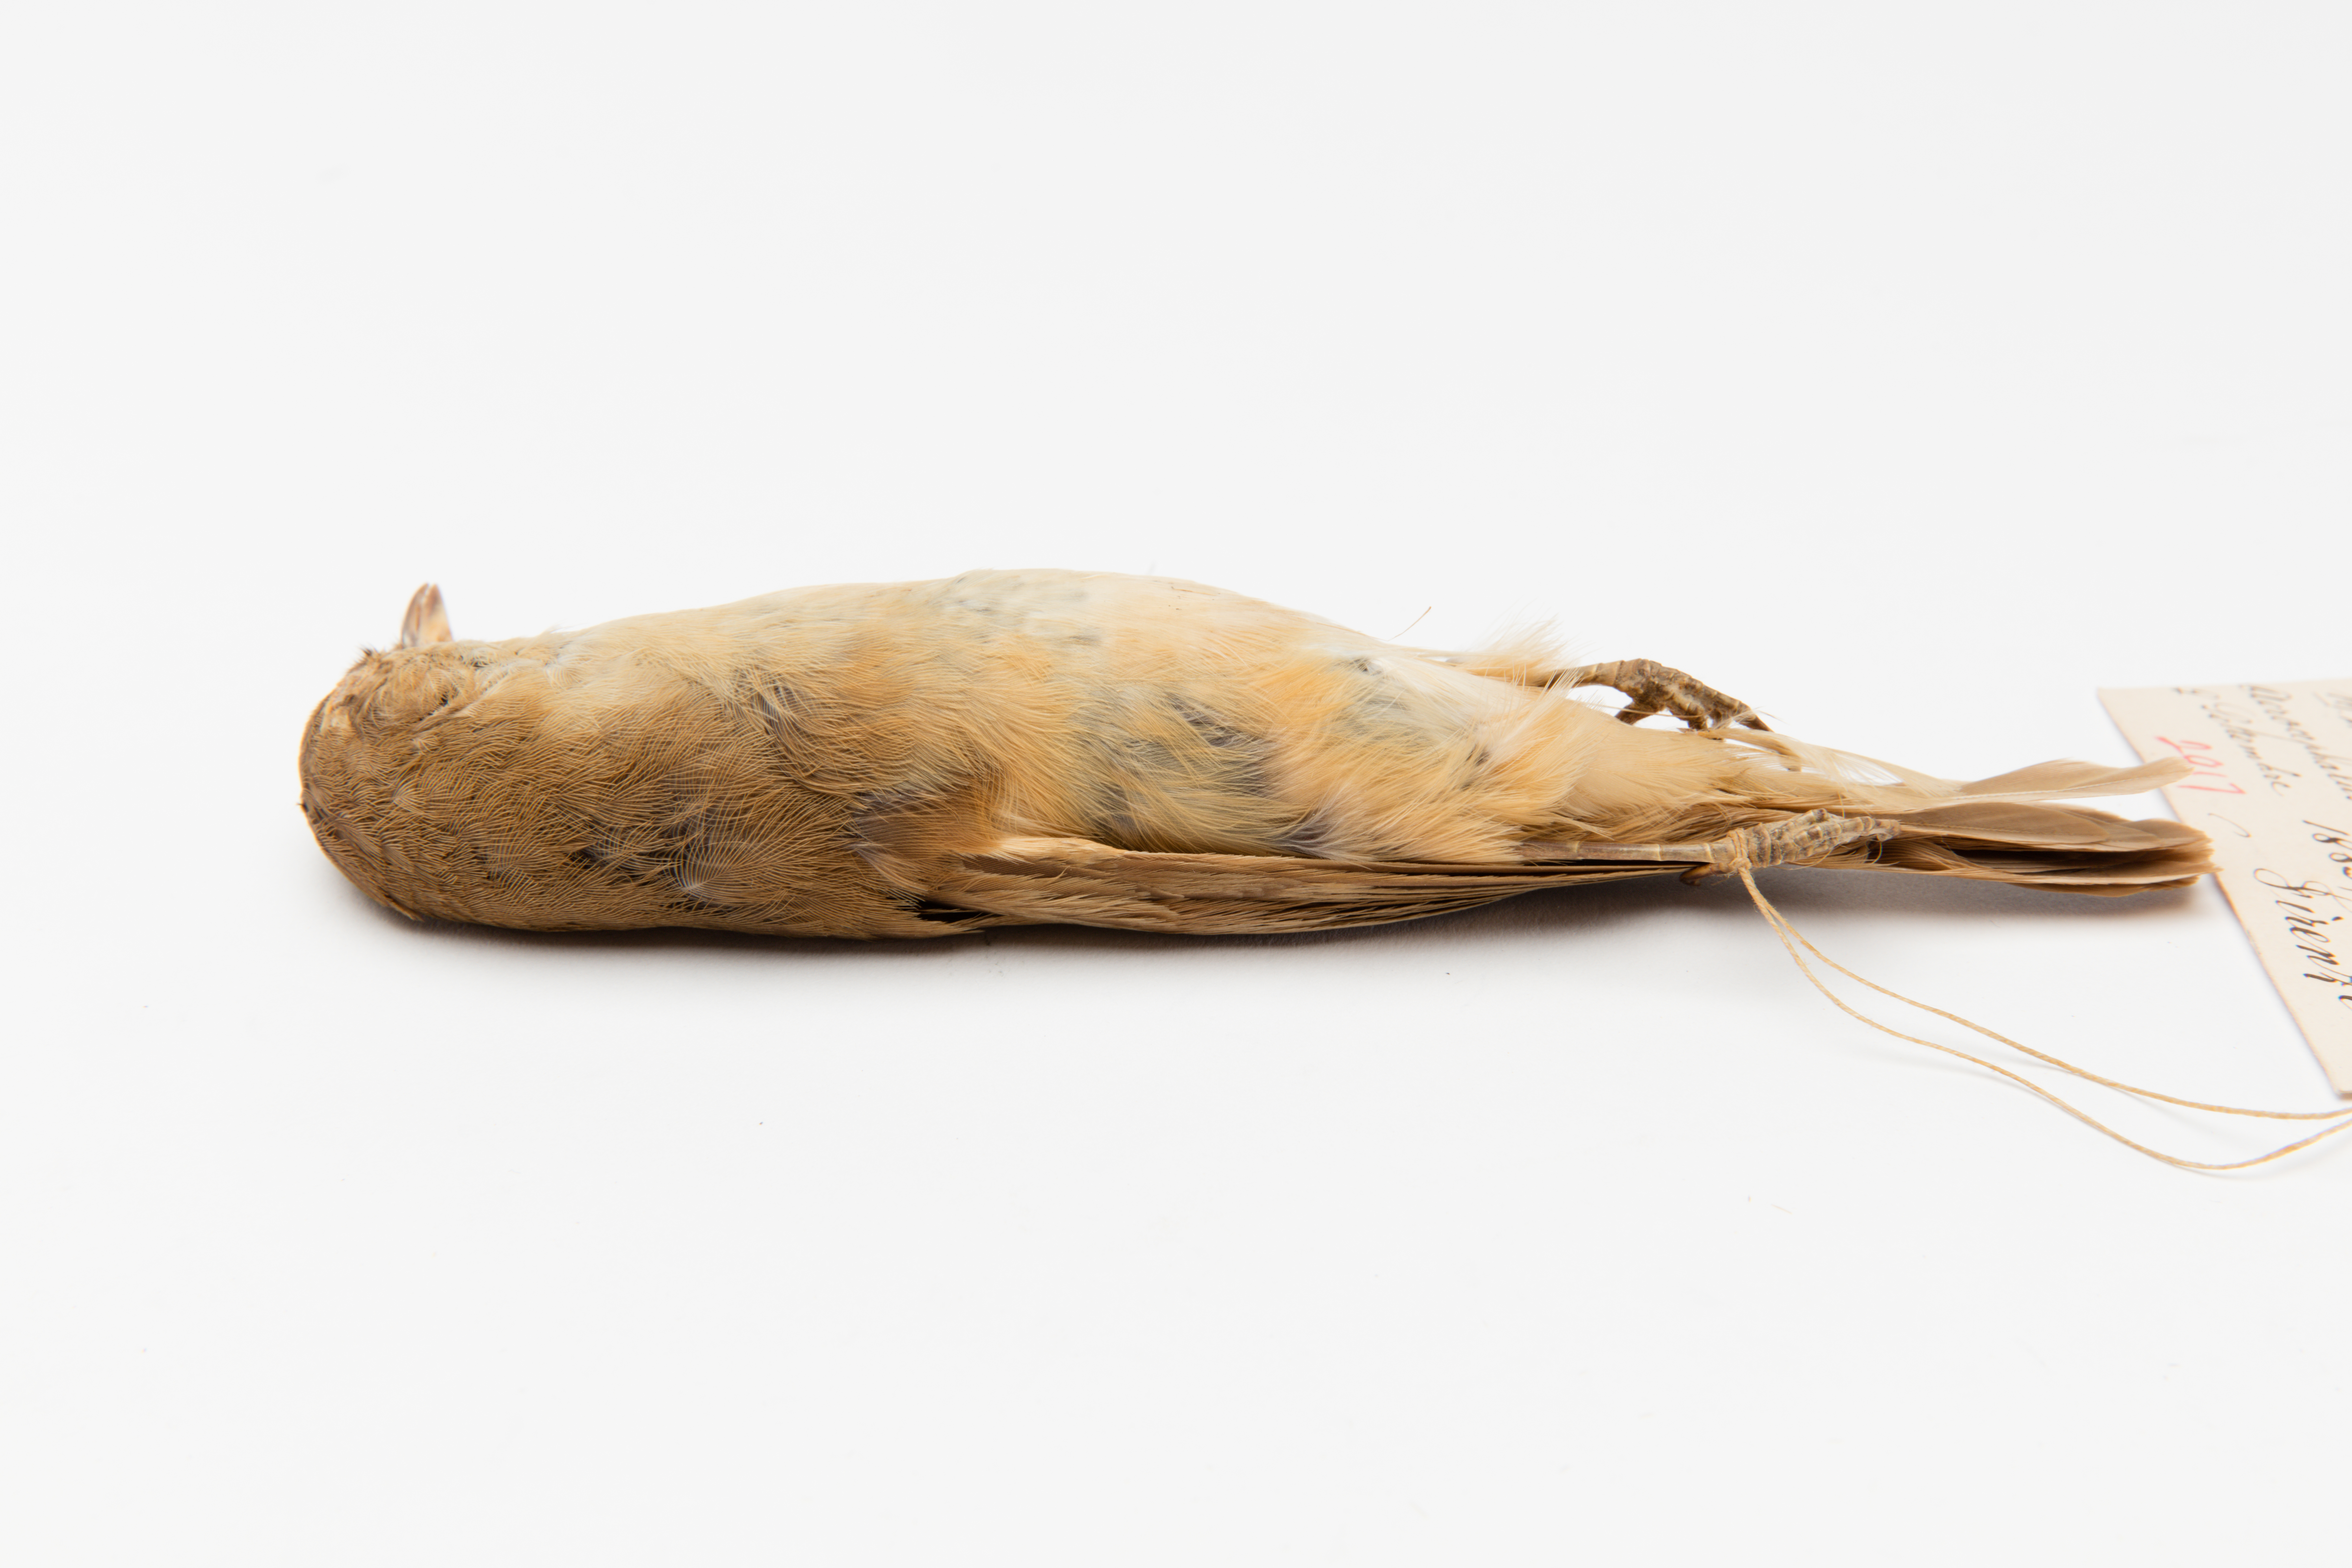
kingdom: Animalia
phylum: Chordata
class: Aves
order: Passeriformes
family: Acrocephalidae
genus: Acrocephalus
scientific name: Acrocephalus arundinaceus
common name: Great reed warbler
